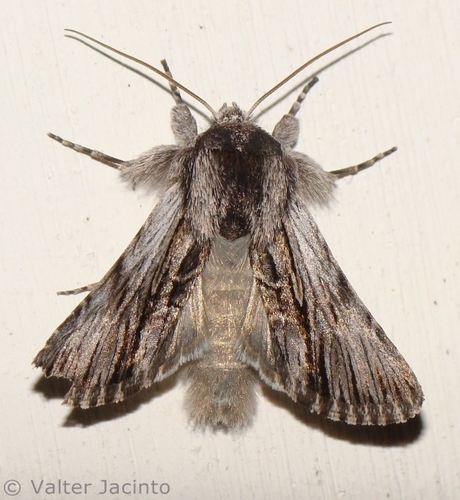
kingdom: Animalia
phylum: Arthropoda
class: Insecta
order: Lepidoptera
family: Noctuidae
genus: Calophasia
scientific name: Calophasia almoravida
